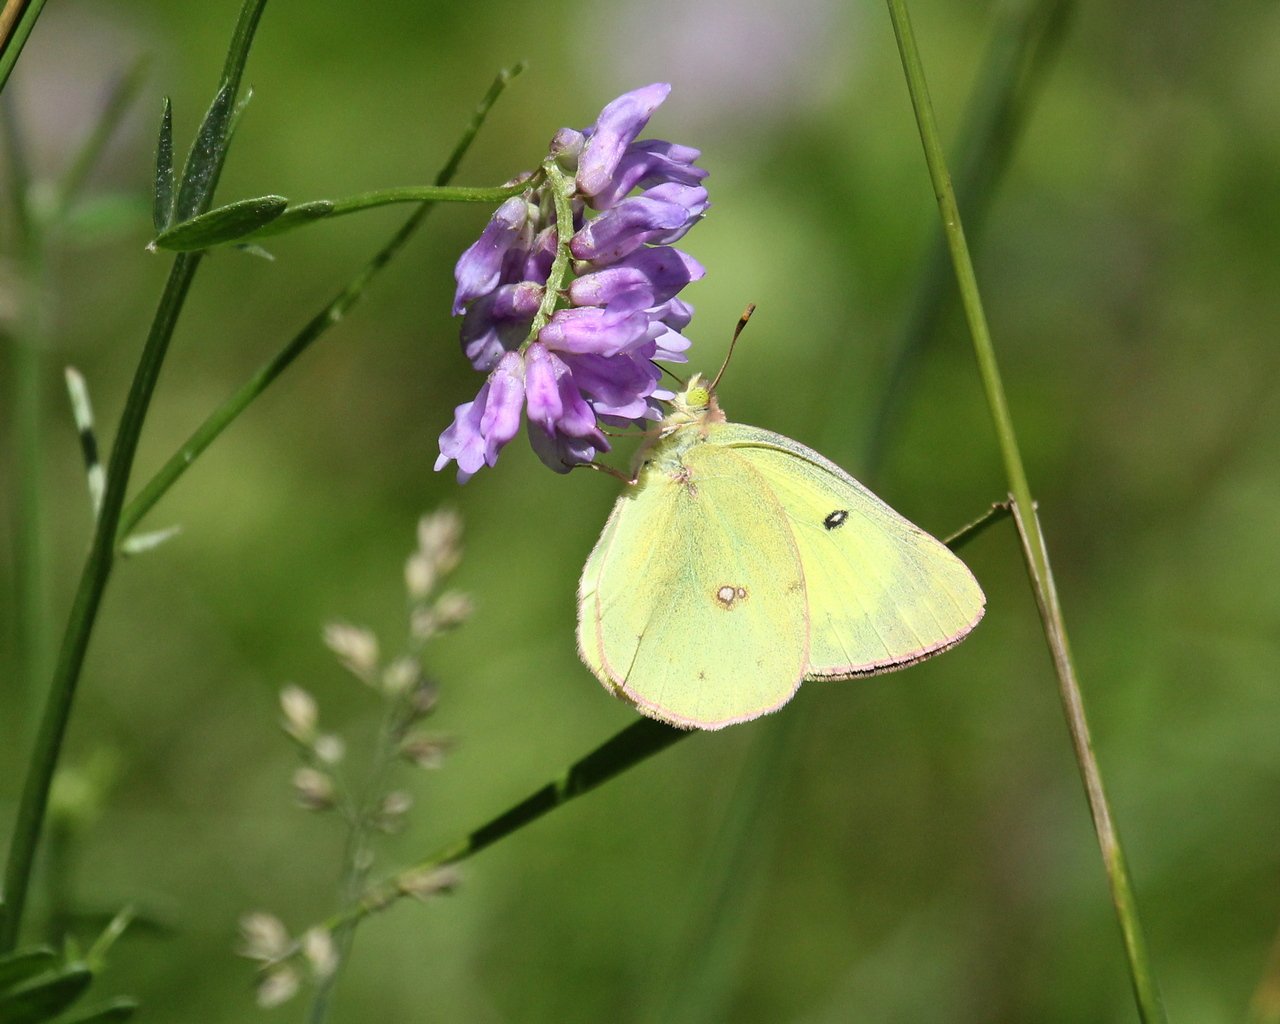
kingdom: Animalia
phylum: Arthropoda
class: Insecta
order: Lepidoptera
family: Pieridae
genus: Colias
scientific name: Colias philodice
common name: Clouded Sulphur
